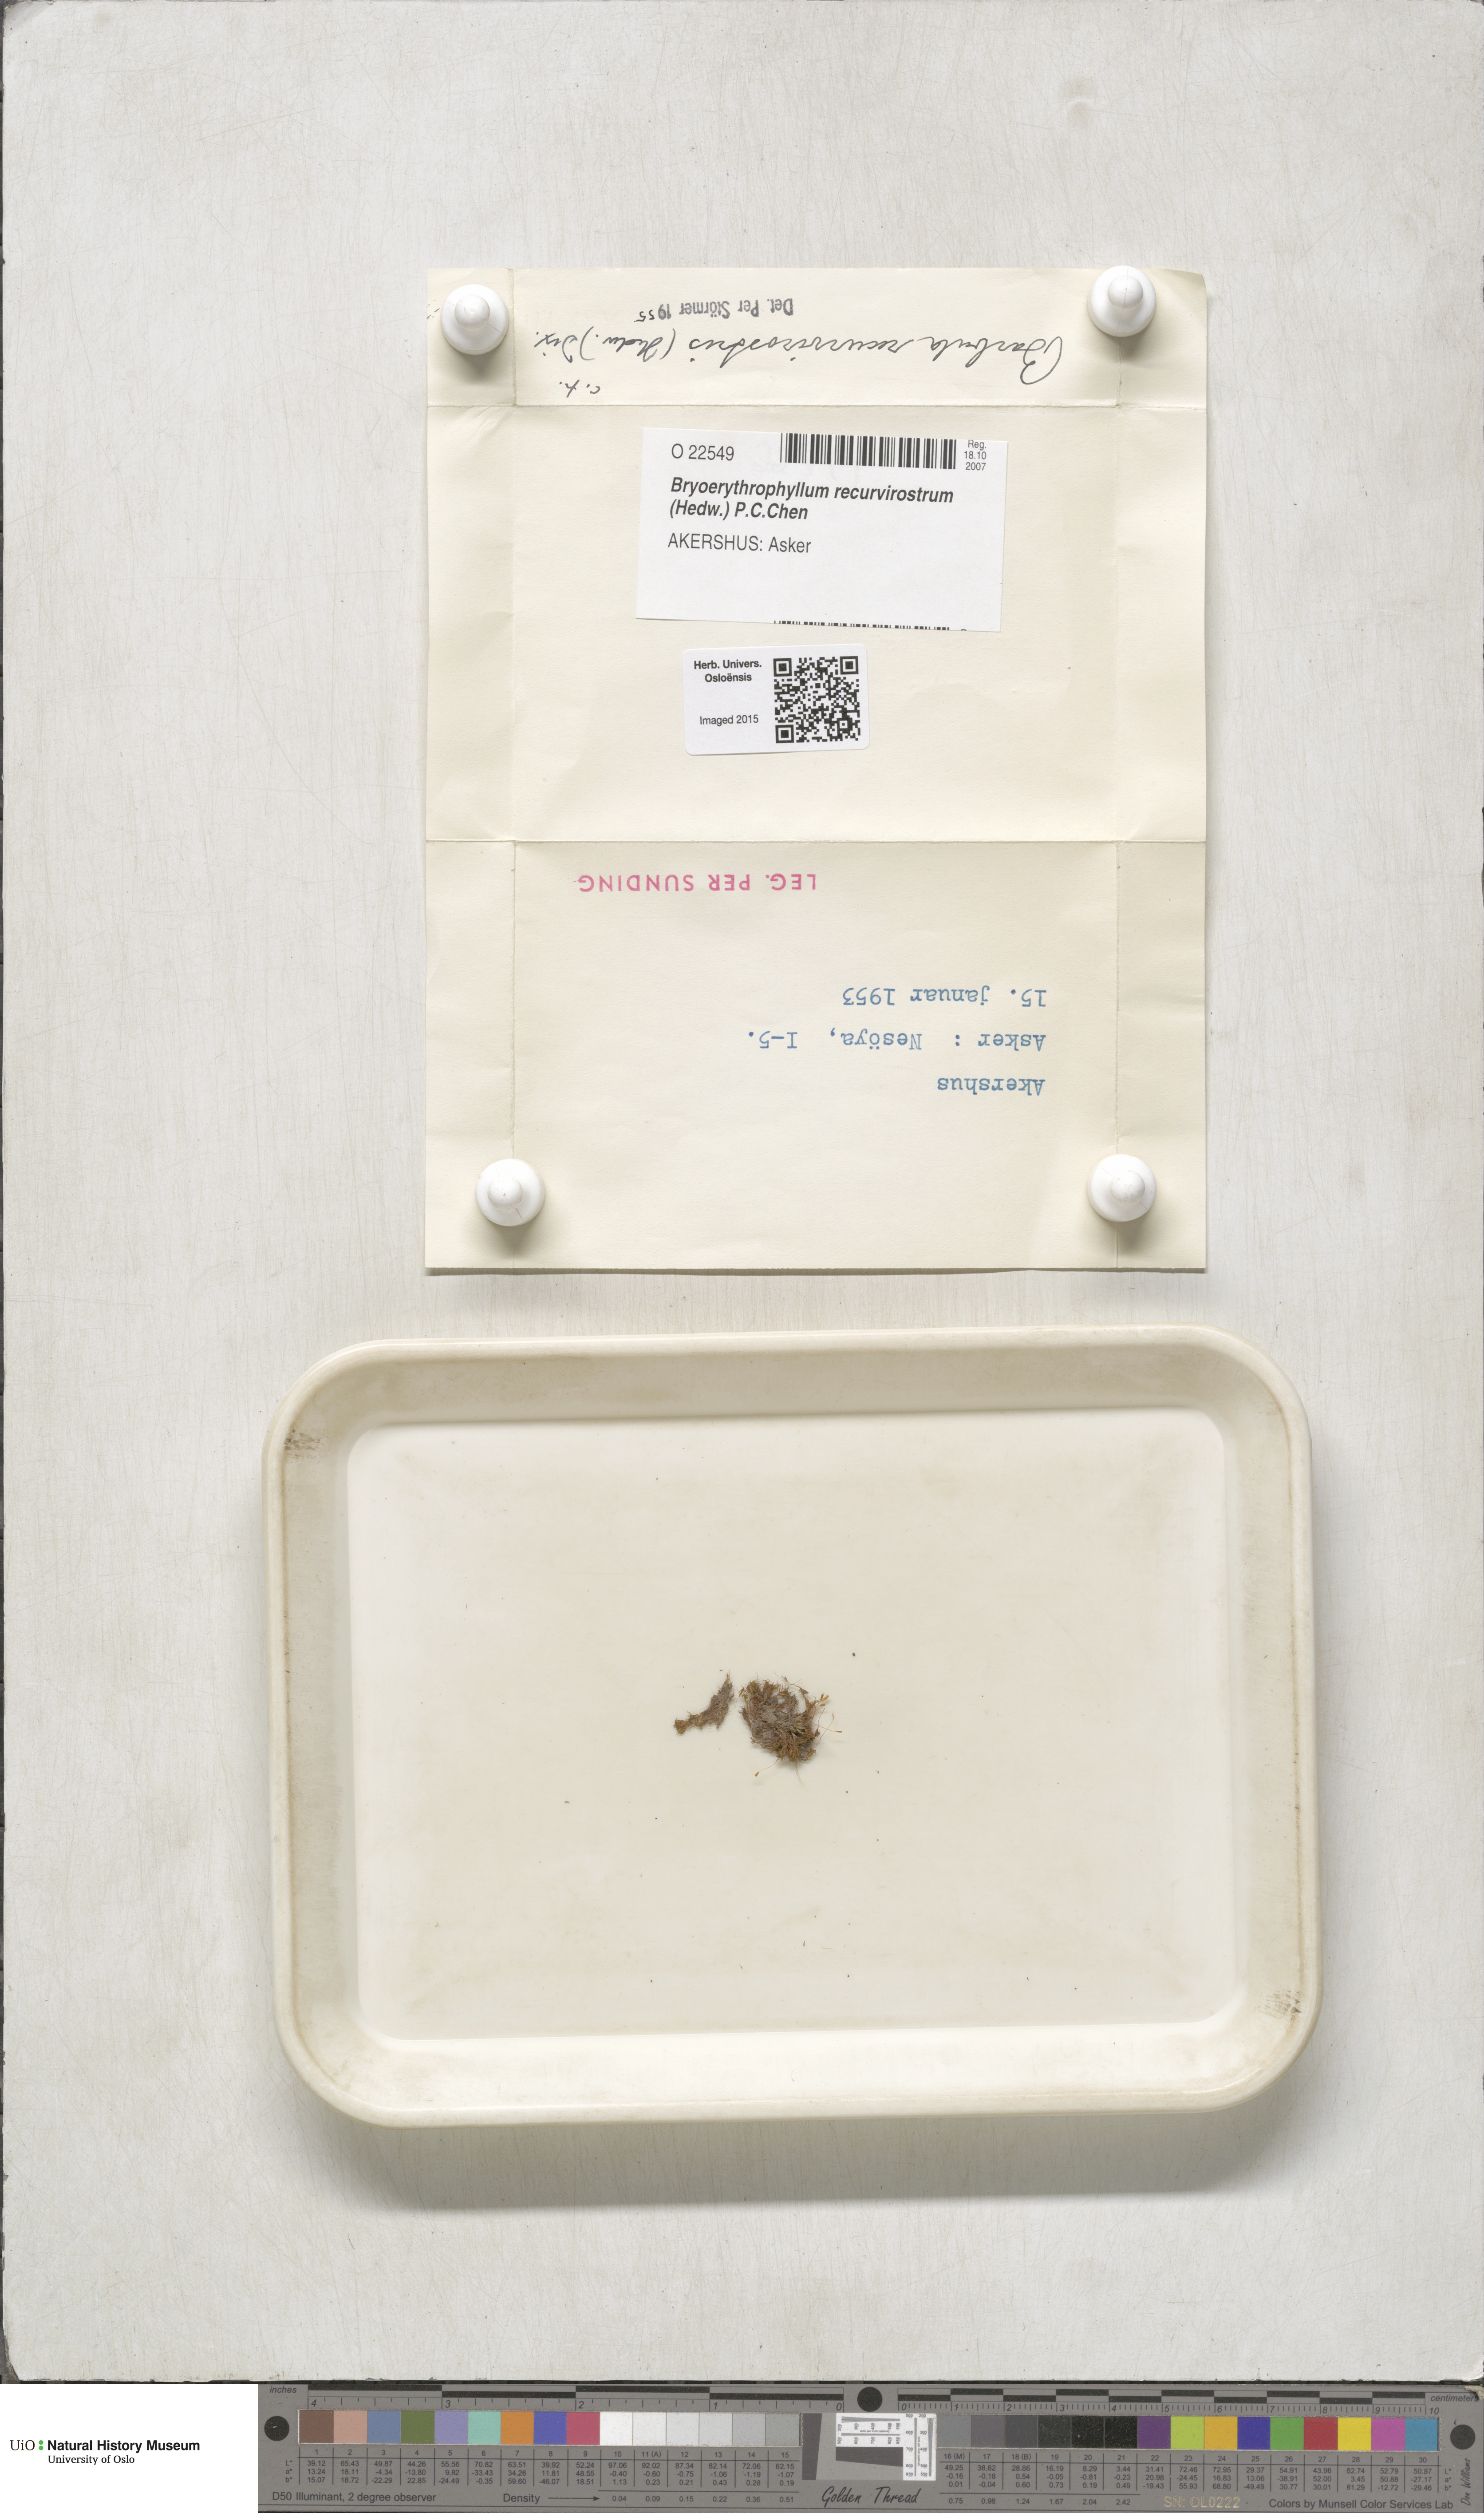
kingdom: Plantae
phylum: Bryophyta
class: Bryopsida
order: Pottiales
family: Pottiaceae
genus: Bryoerythrophyllum
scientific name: Bryoerythrophyllum recurvirostrum
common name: Red beard moss
